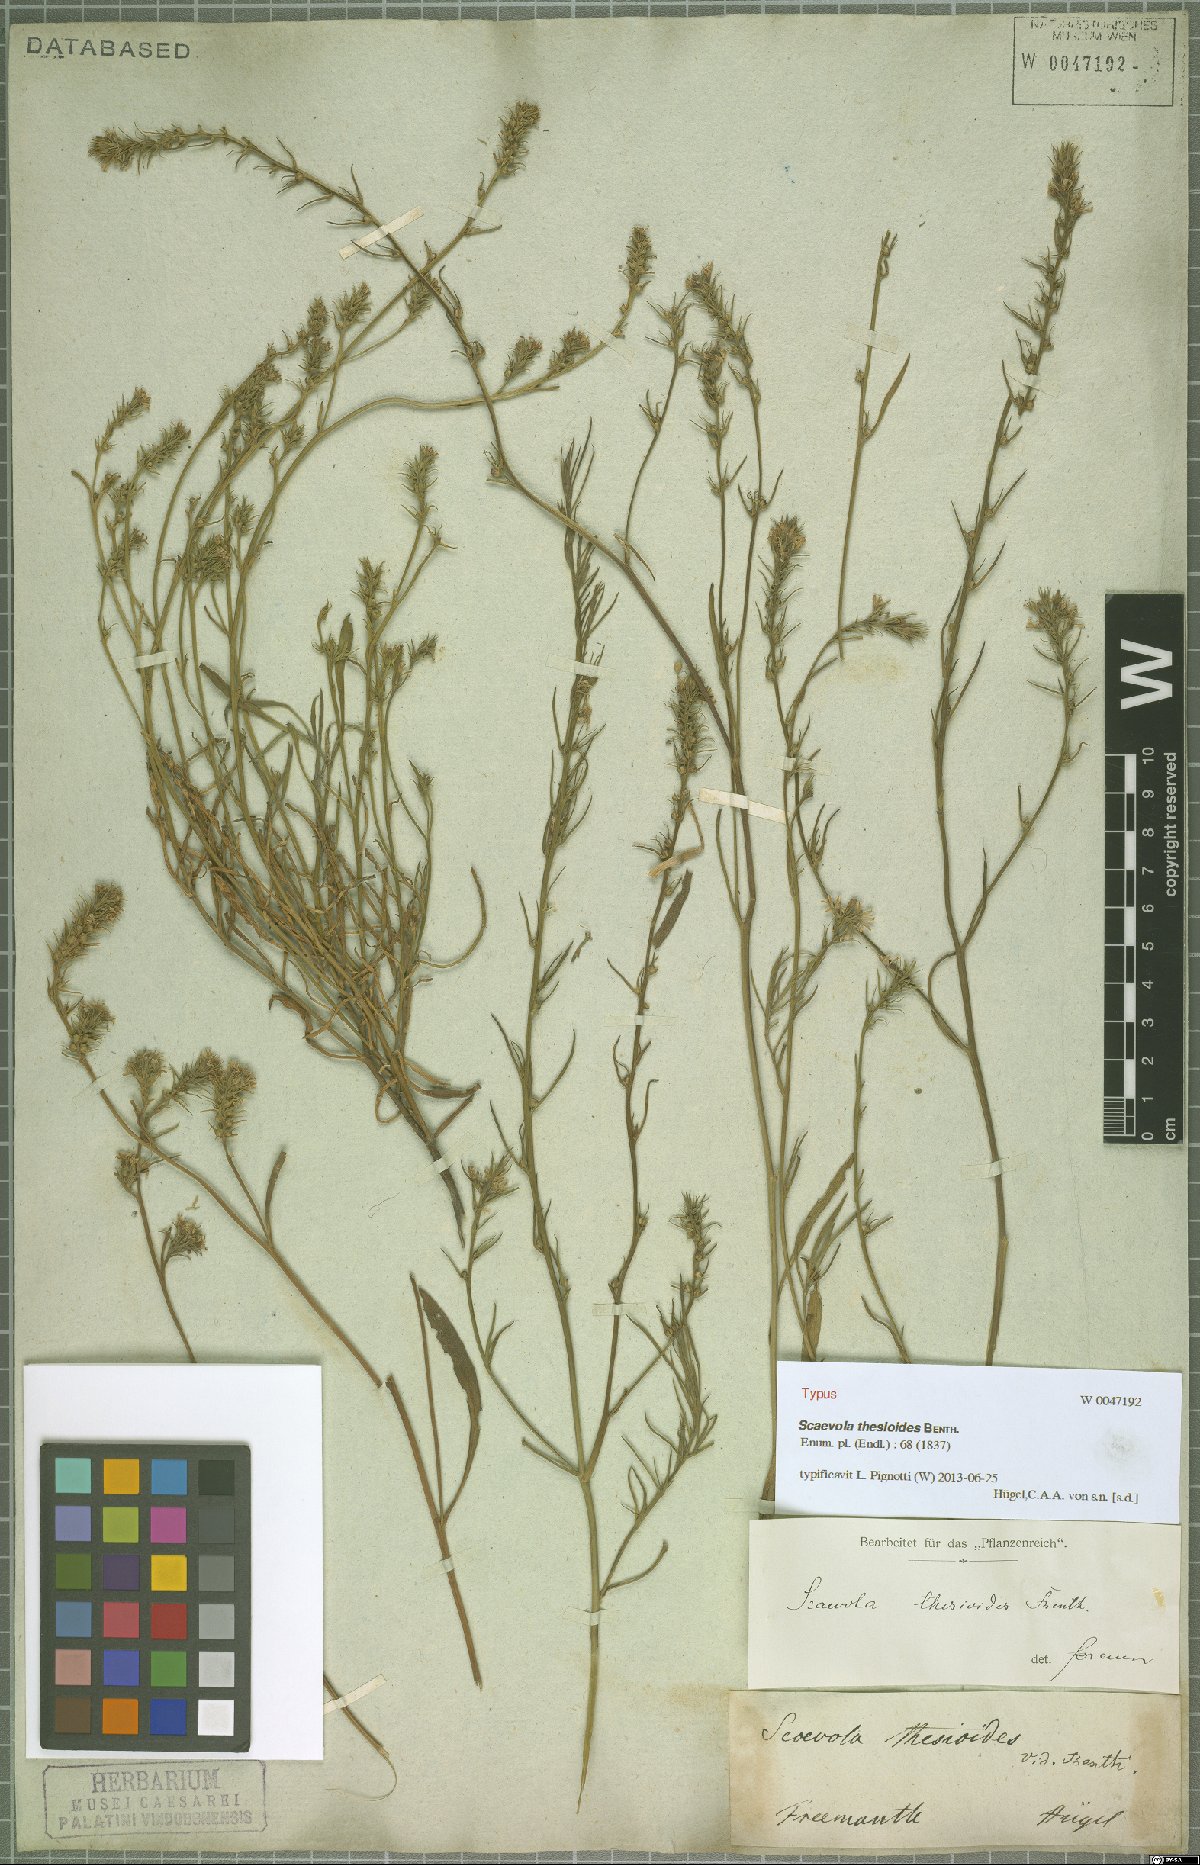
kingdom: Plantae
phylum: Tracheophyta
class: Magnoliopsida
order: Asterales
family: Goodeniaceae
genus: Scaevola
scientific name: Scaevola thesioides
